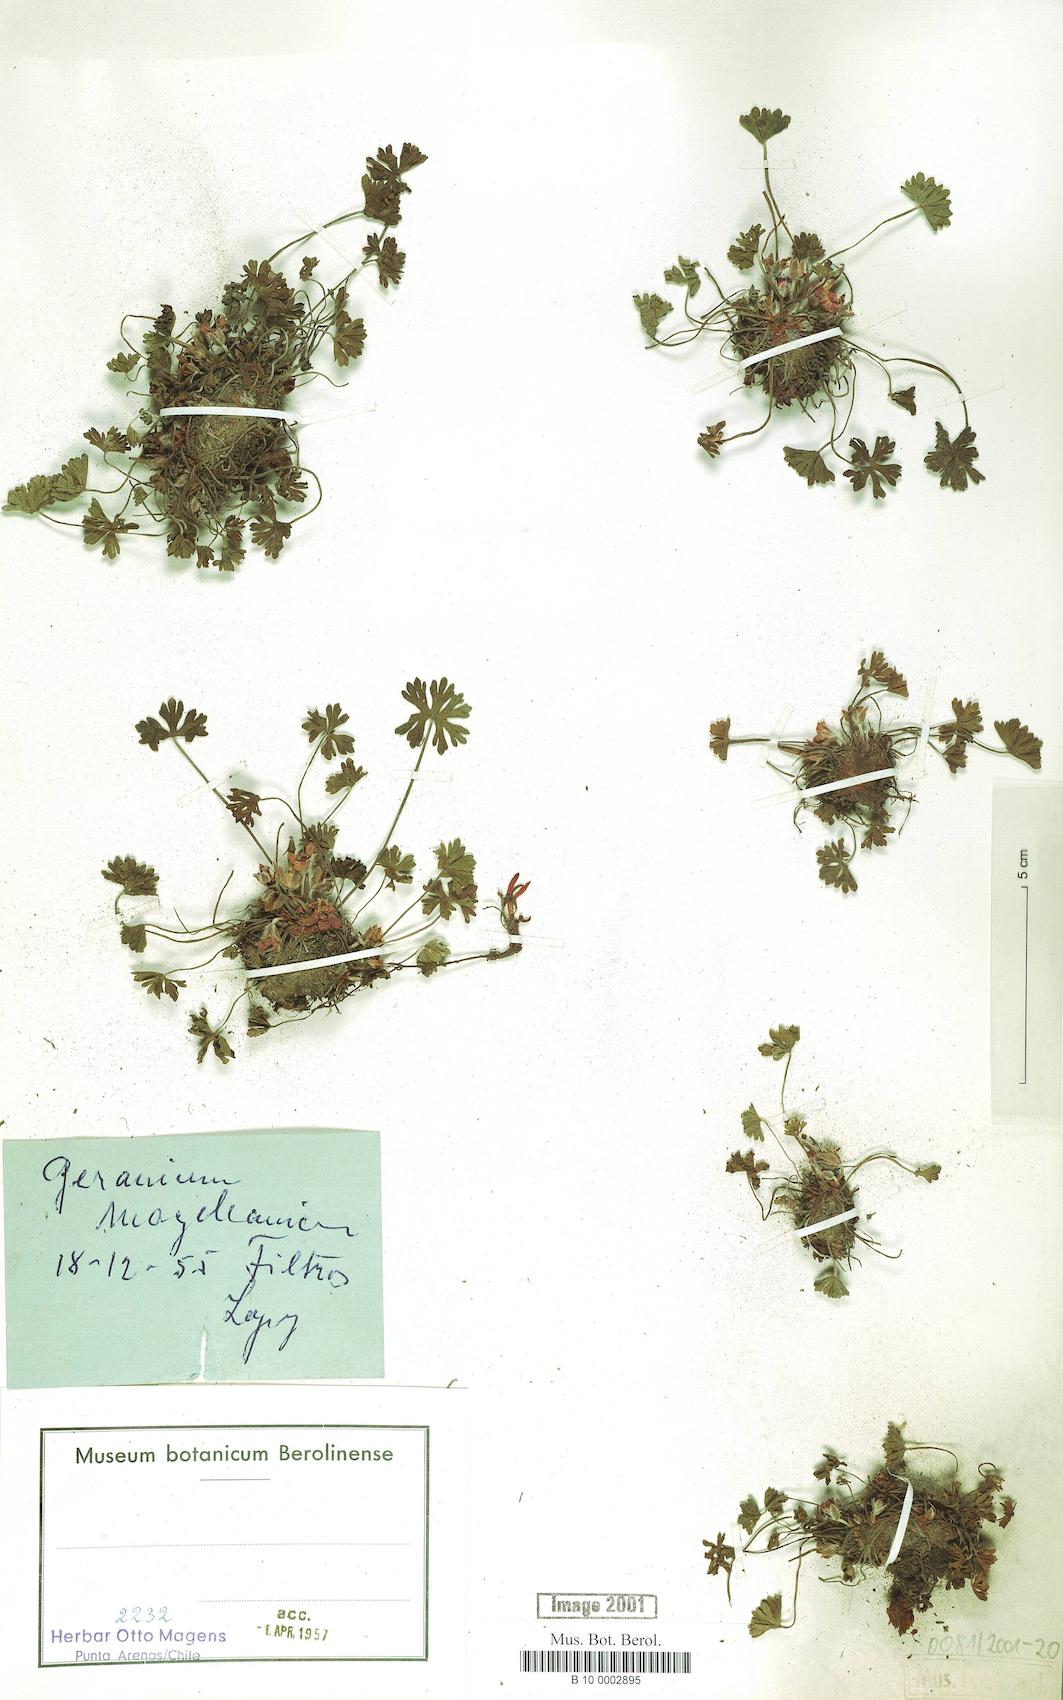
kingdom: Plantae
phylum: Tracheophyta
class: Magnoliopsida
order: Geraniales
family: Geraniaceae
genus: Geranium
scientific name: Geranium magellanicum
